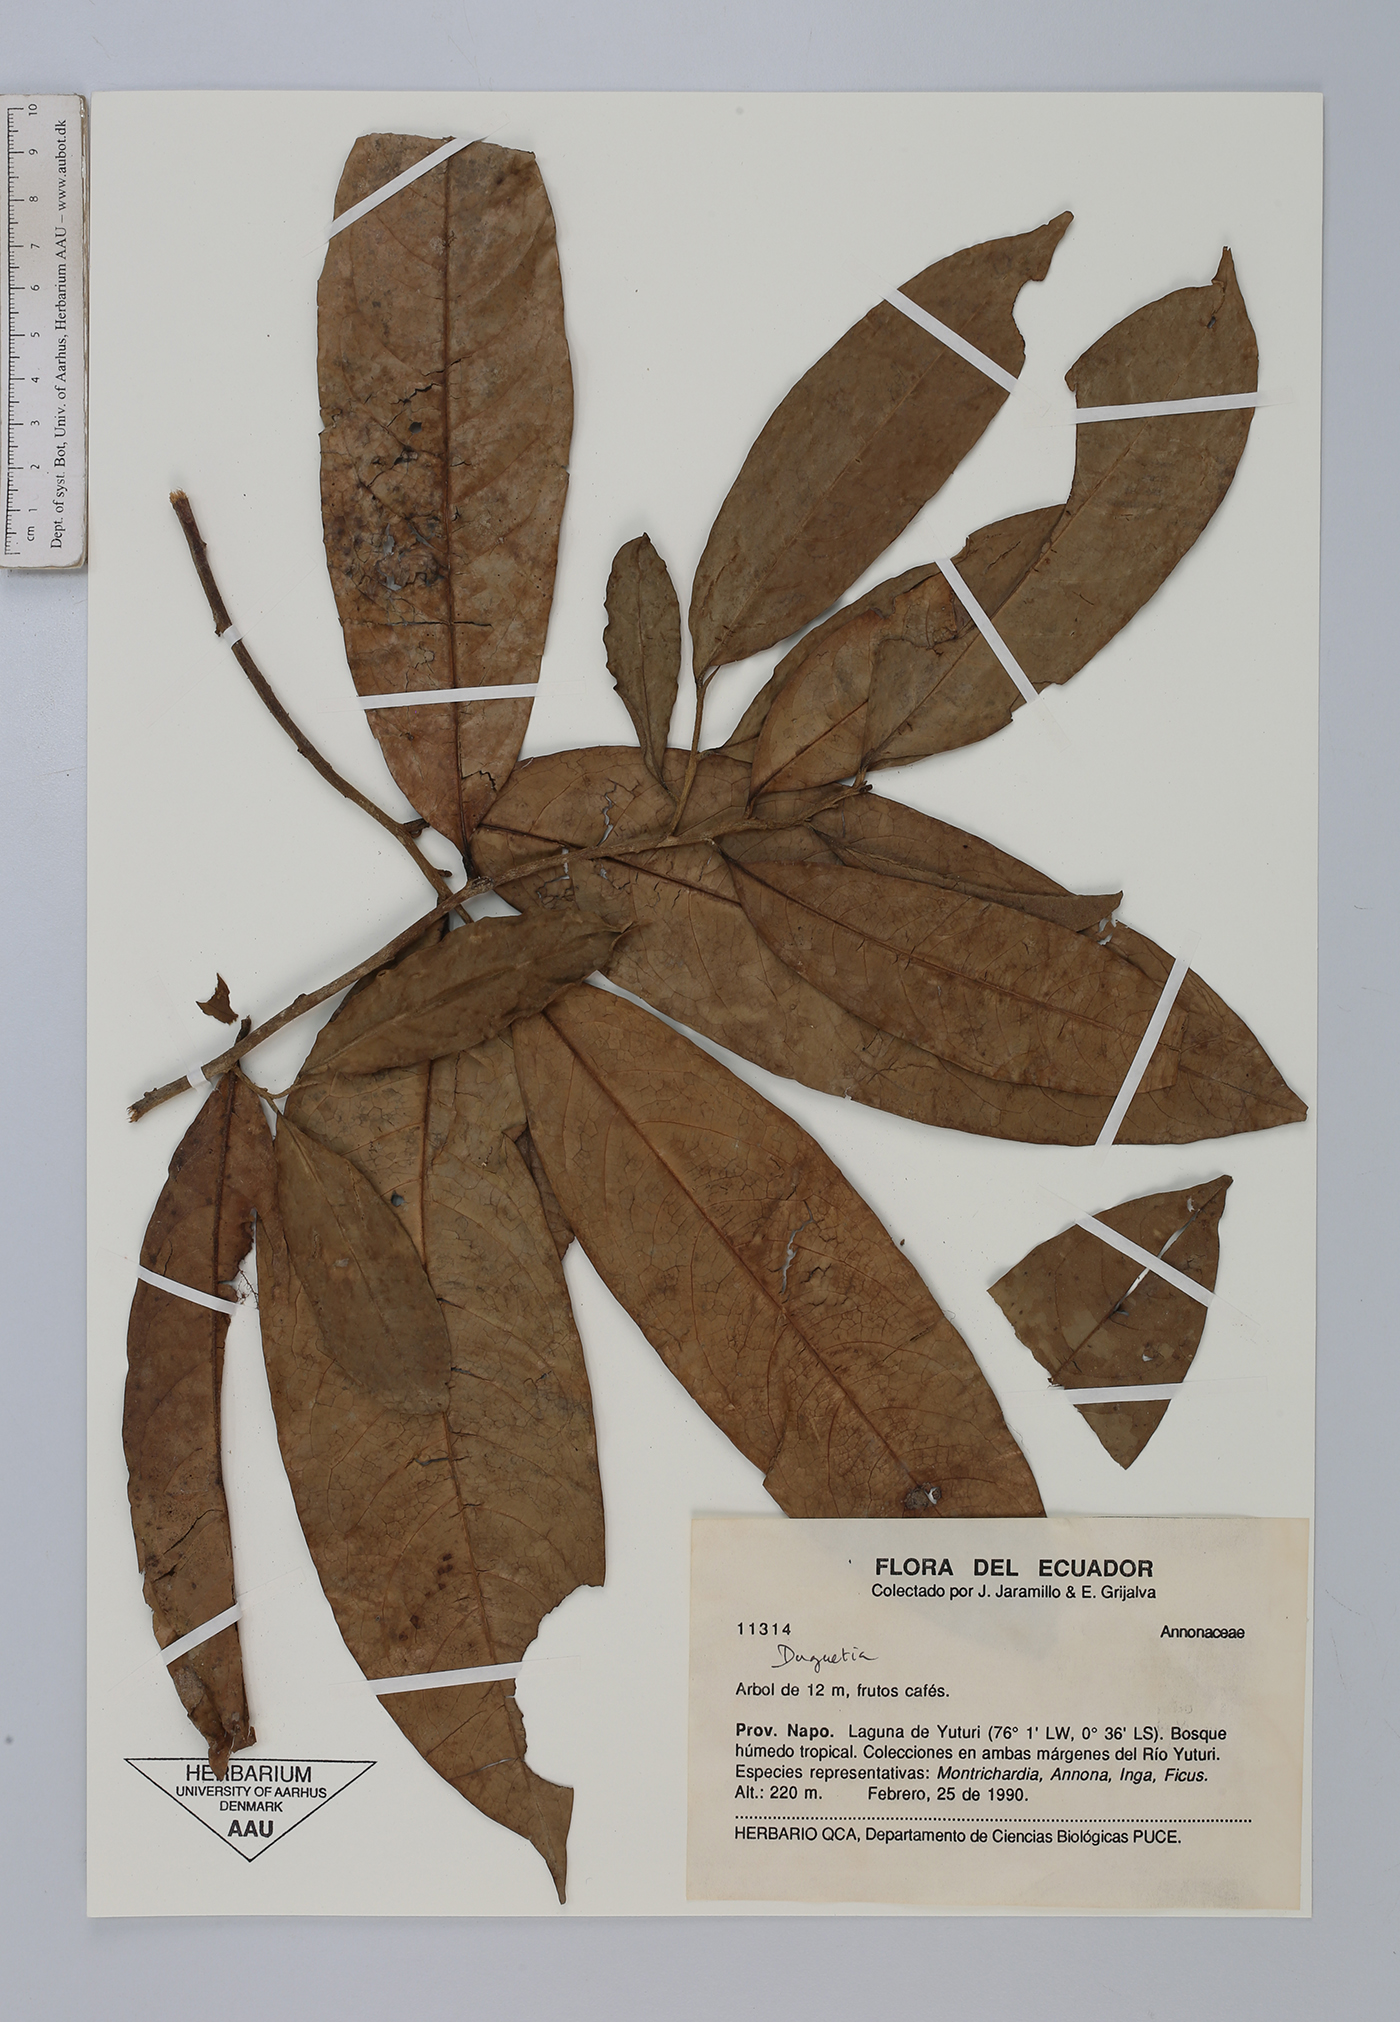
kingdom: Plantae
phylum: Tracheophyta
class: Magnoliopsida
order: Magnoliales
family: Annonaceae
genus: Duguetia
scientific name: Duguetia
